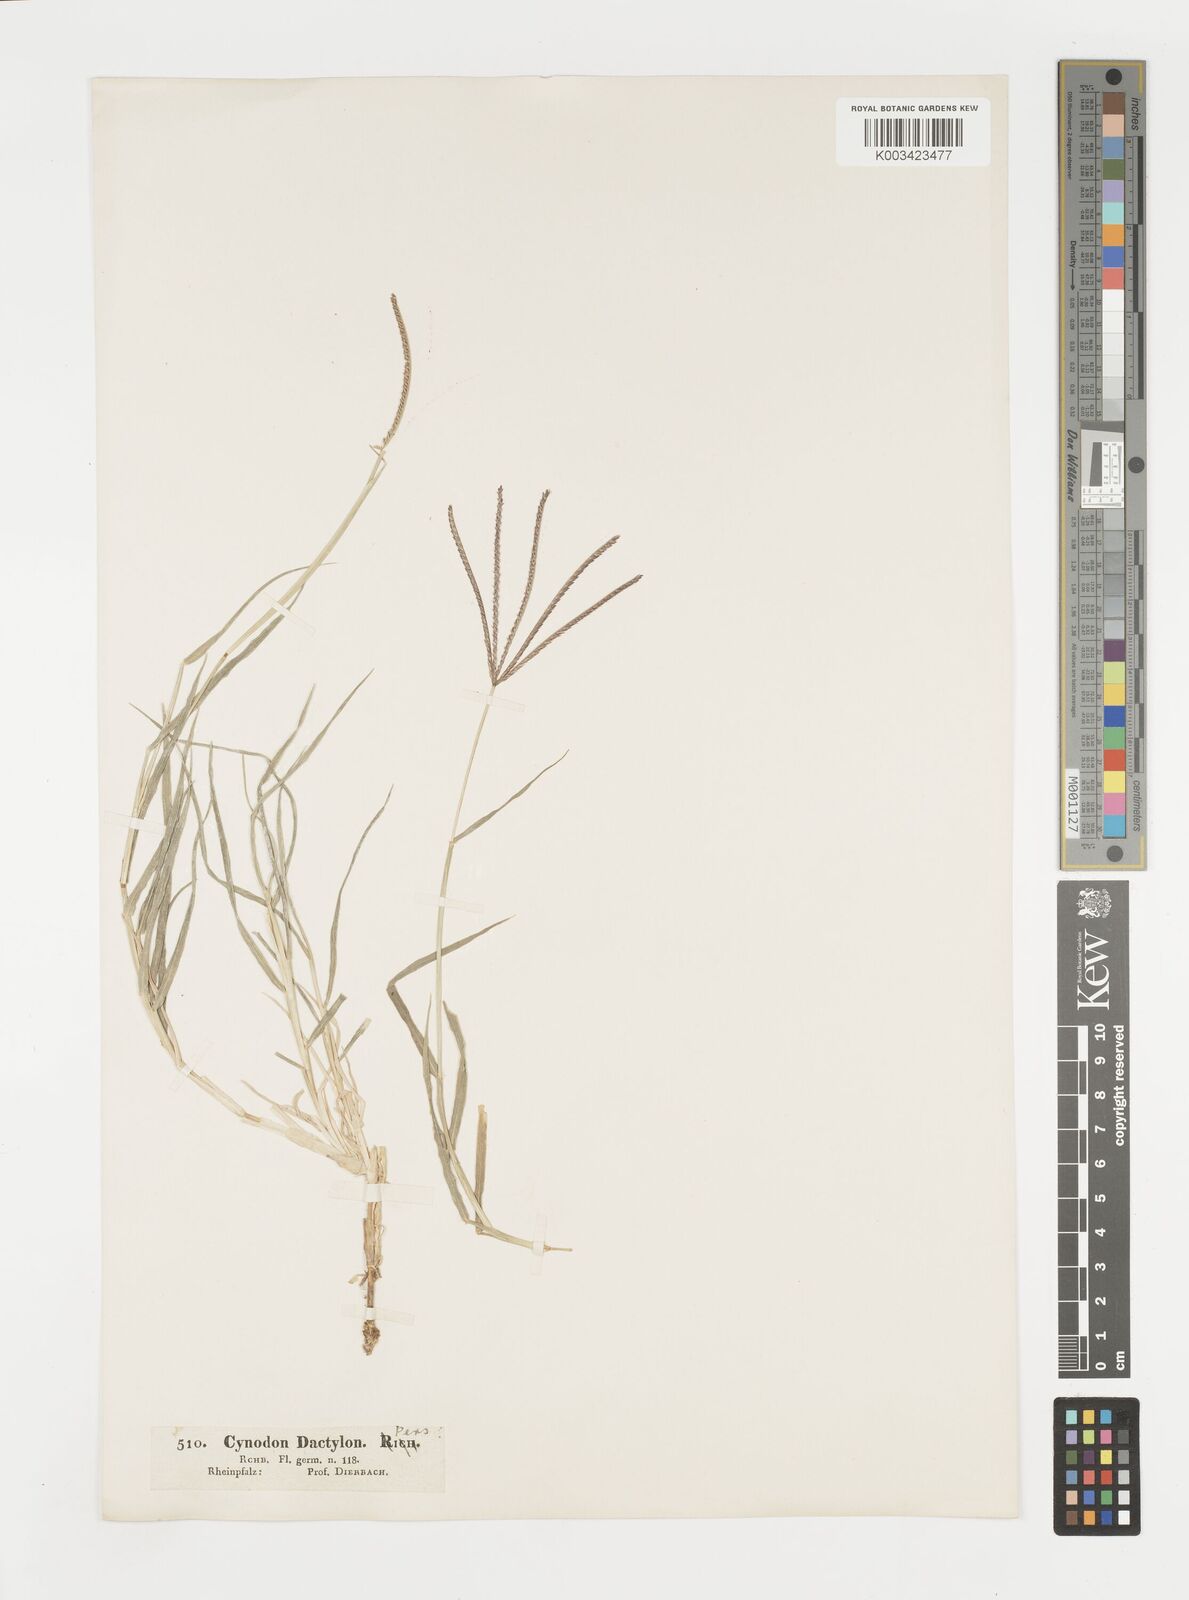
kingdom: Plantae
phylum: Tracheophyta
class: Liliopsida
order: Poales
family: Poaceae
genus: Cynodon
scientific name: Cynodon dactylon
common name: Bermuda grass
